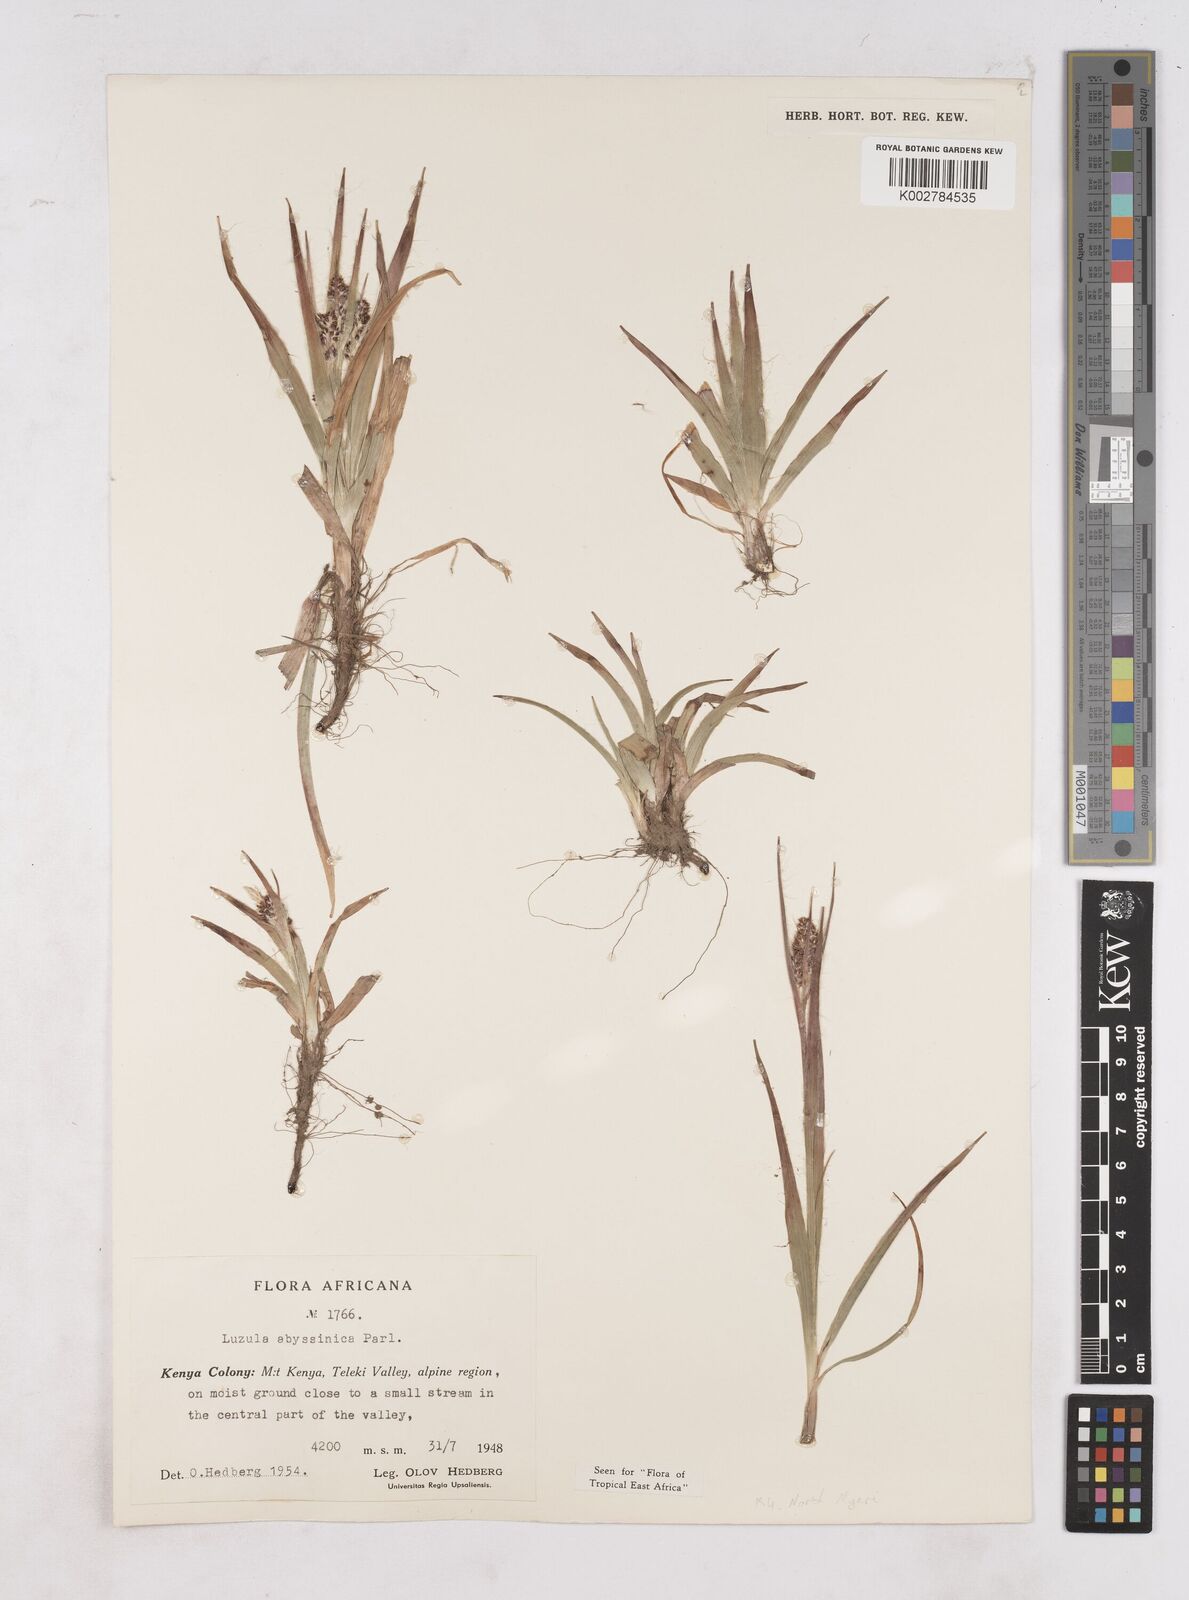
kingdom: Plantae
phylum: Tracheophyta
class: Liliopsida
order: Poales
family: Juncaceae
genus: Luzula
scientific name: Luzula abyssinica
